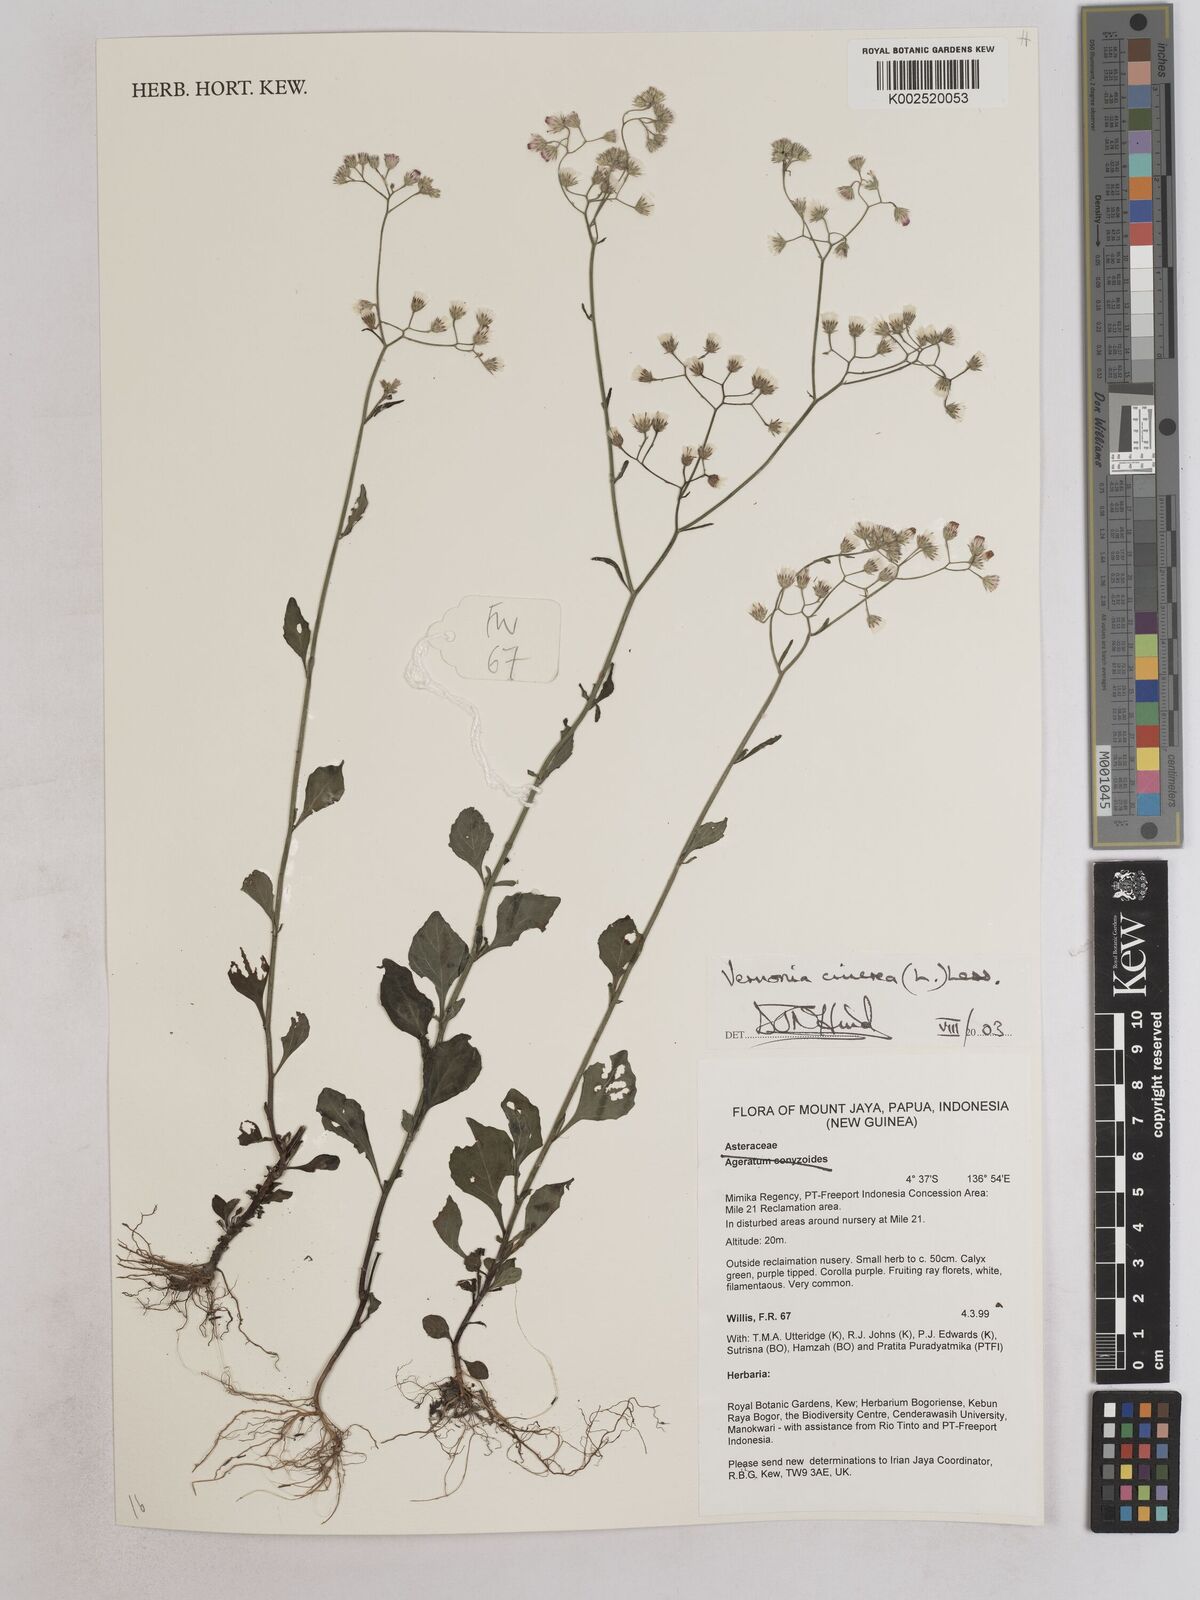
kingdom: Plantae
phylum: Tracheophyta
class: Magnoliopsida
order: Asterales
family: Asteraceae
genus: Cyanthillium
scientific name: Cyanthillium cinereum
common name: Little ironweed
